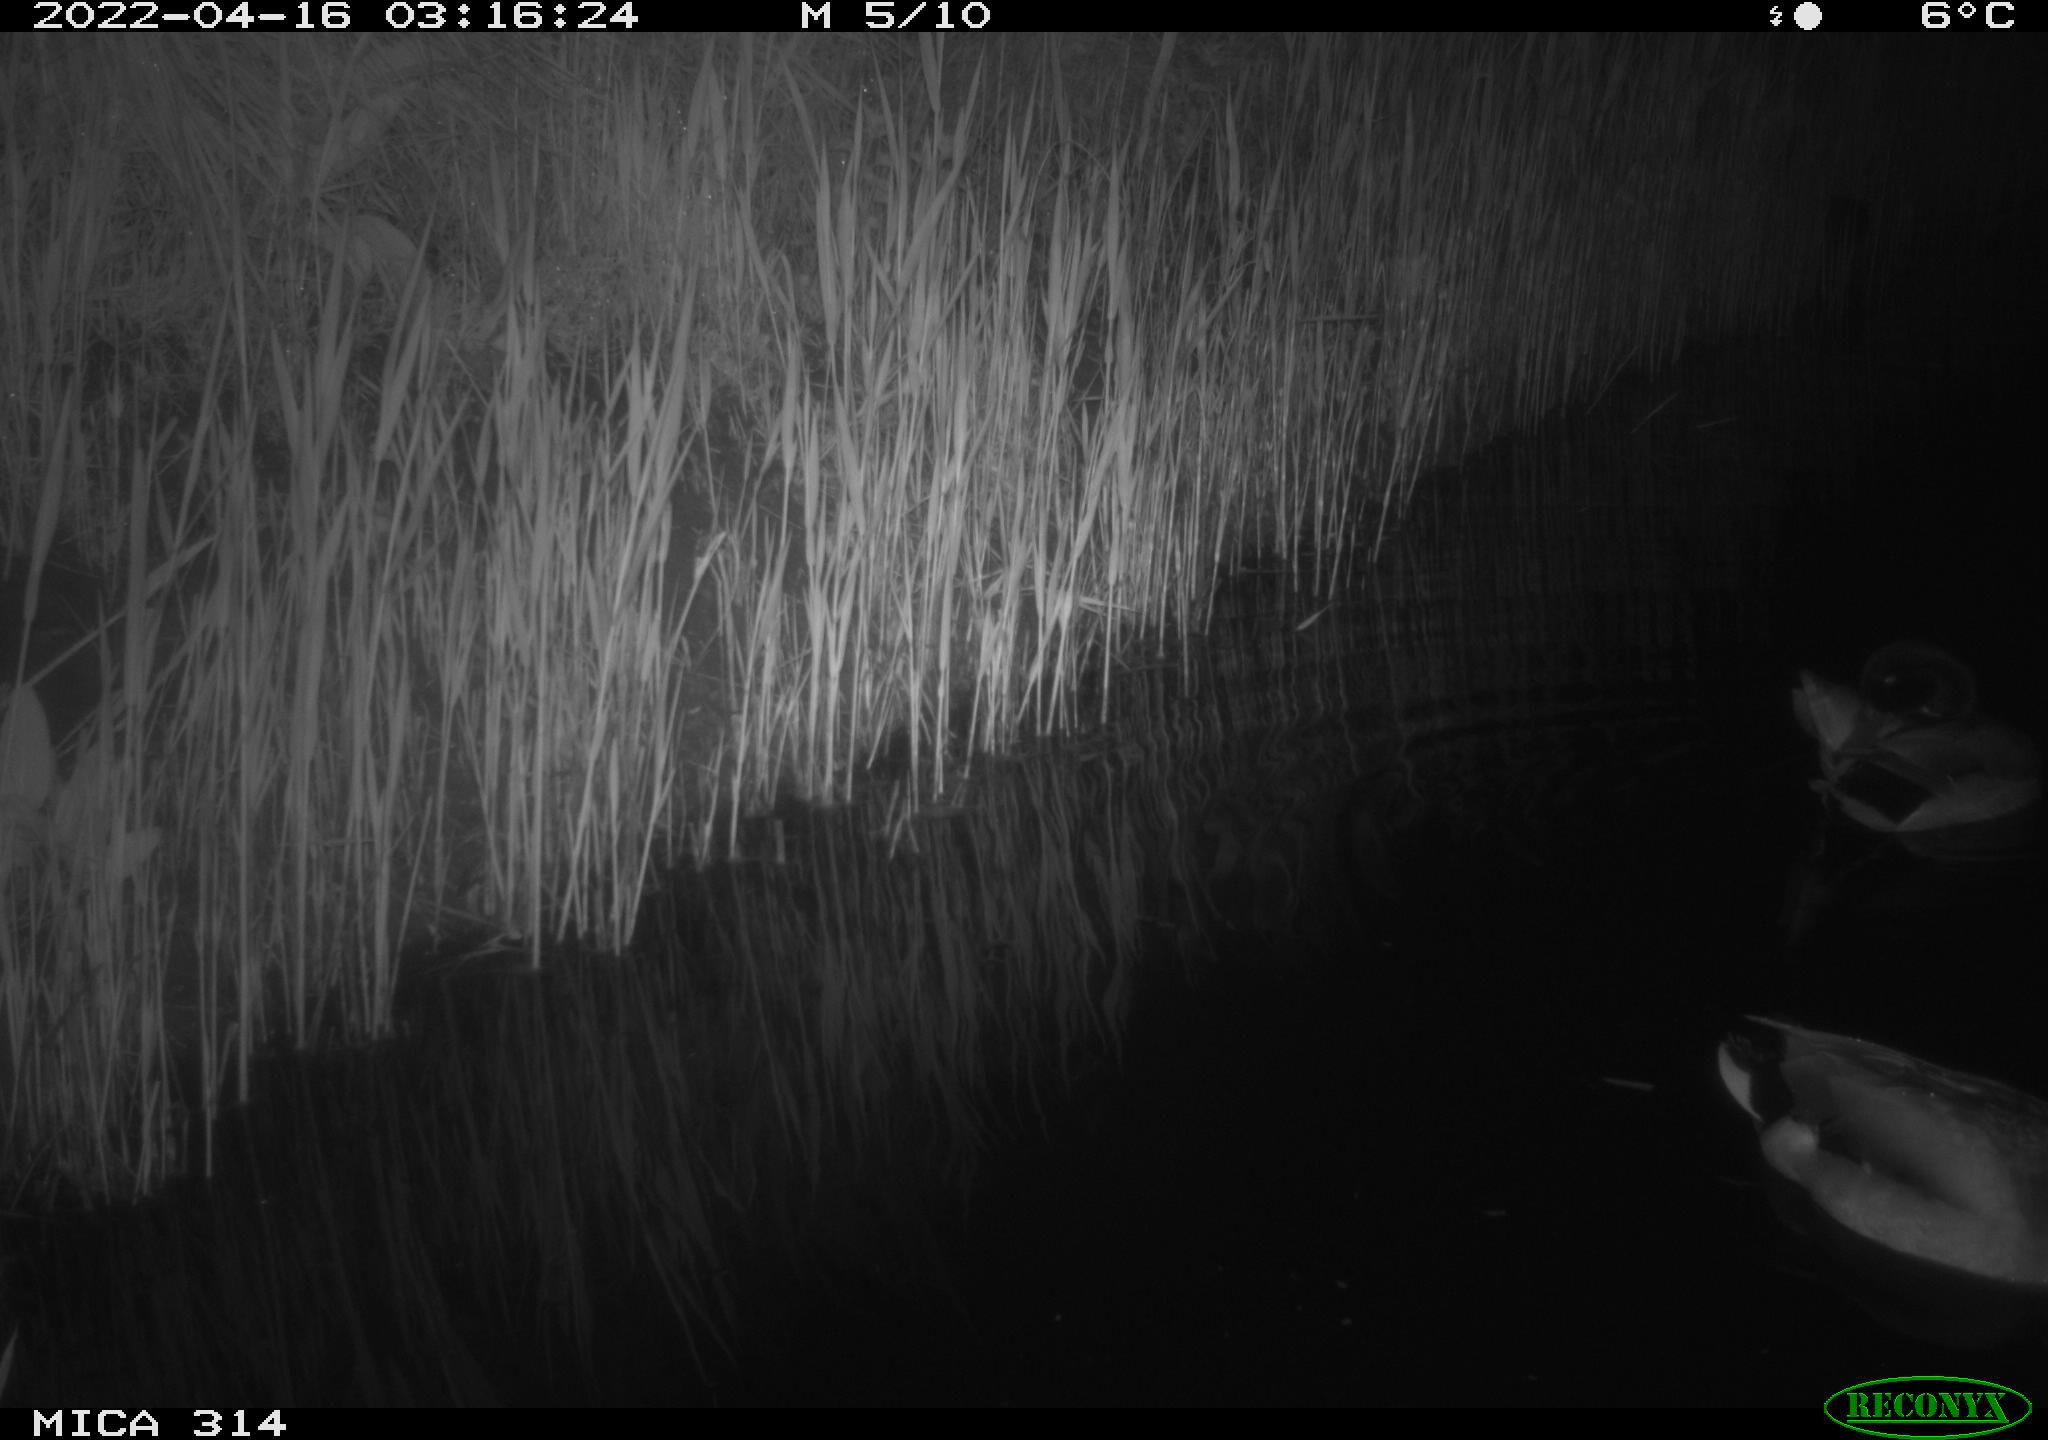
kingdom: Animalia
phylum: Chordata
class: Aves
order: Anseriformes
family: Anatidae
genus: Anas
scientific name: Anas platyrhynchos
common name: Mallard
